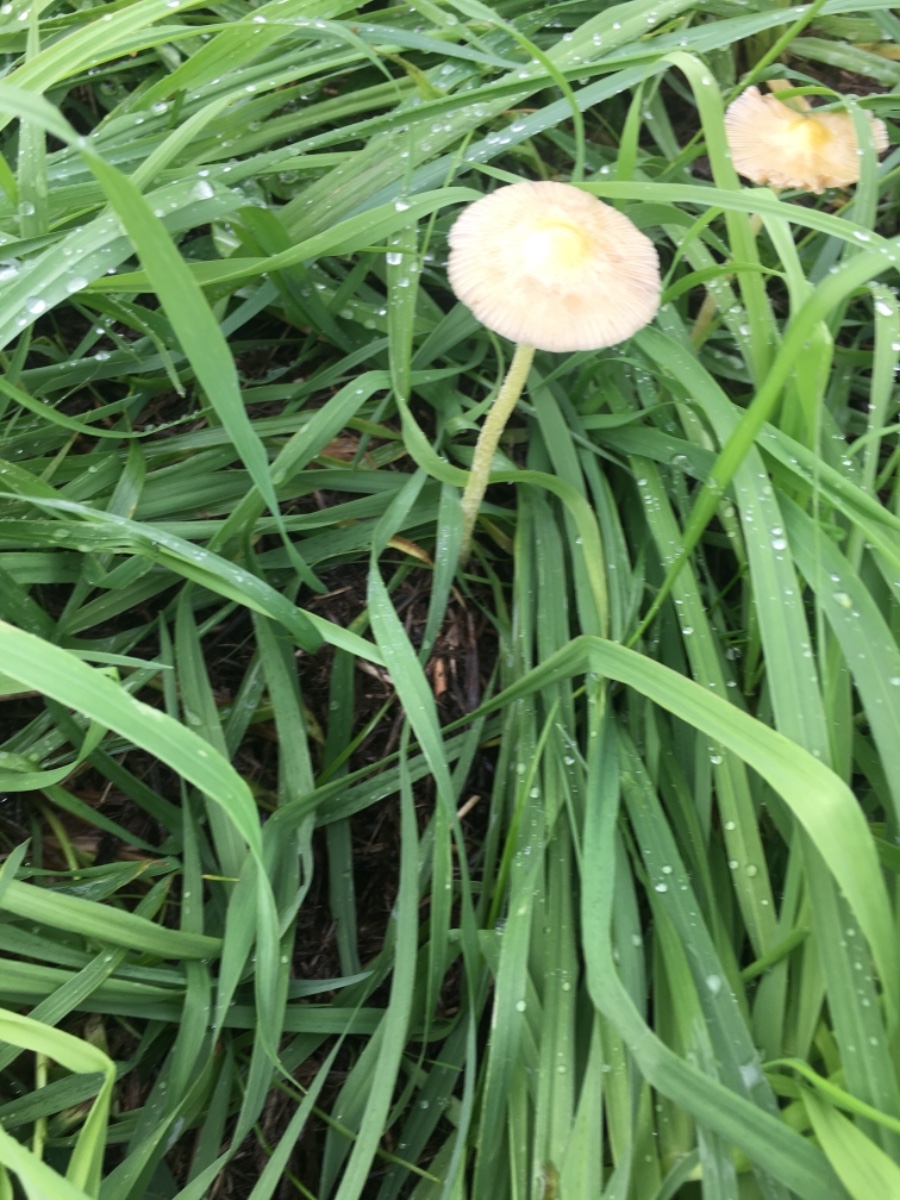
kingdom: Fungi
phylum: Basidiomycota
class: Agaricomycetes
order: Agaricales
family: Bolbitiaceae
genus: Bolbitius
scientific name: Bolbitius titubans
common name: almindelig gulhat
